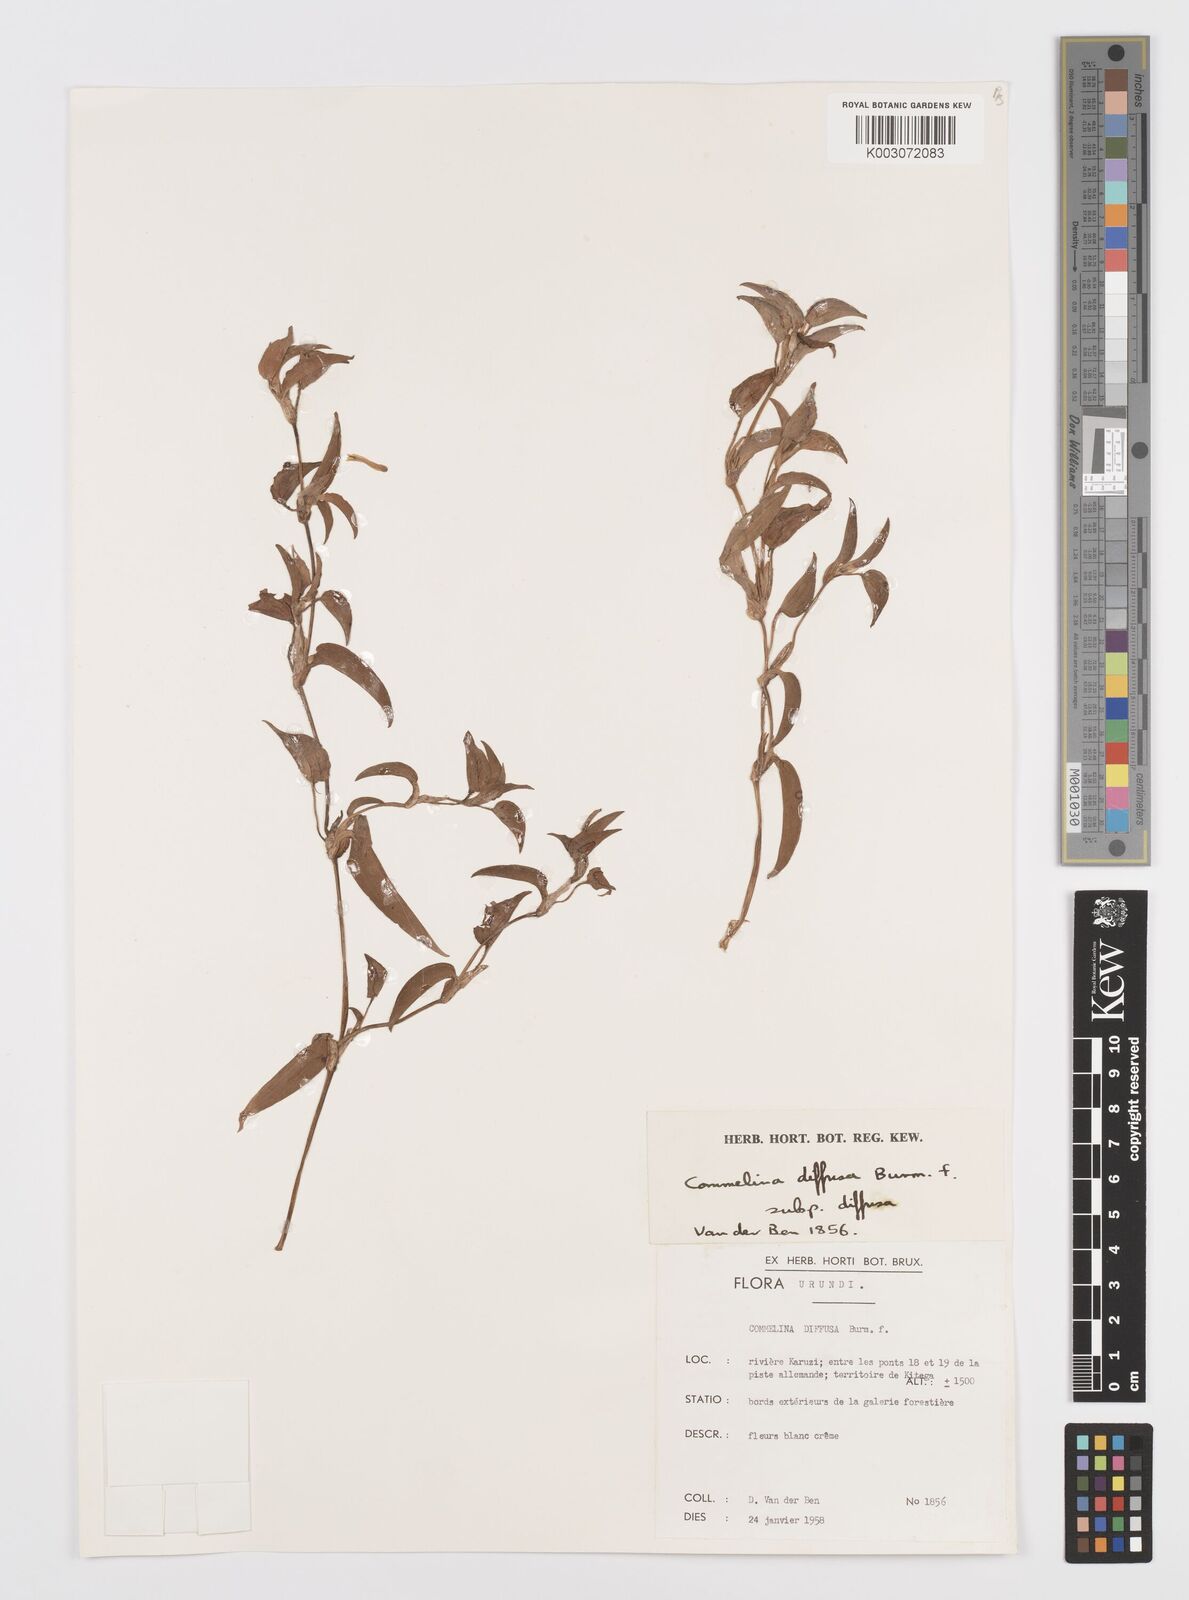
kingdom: Plantae
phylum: Tracheophyta
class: Liliopsida
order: Commelinales
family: Commelinaceae
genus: Commelina
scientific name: Commelina diffusa
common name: Climbing dayflower
